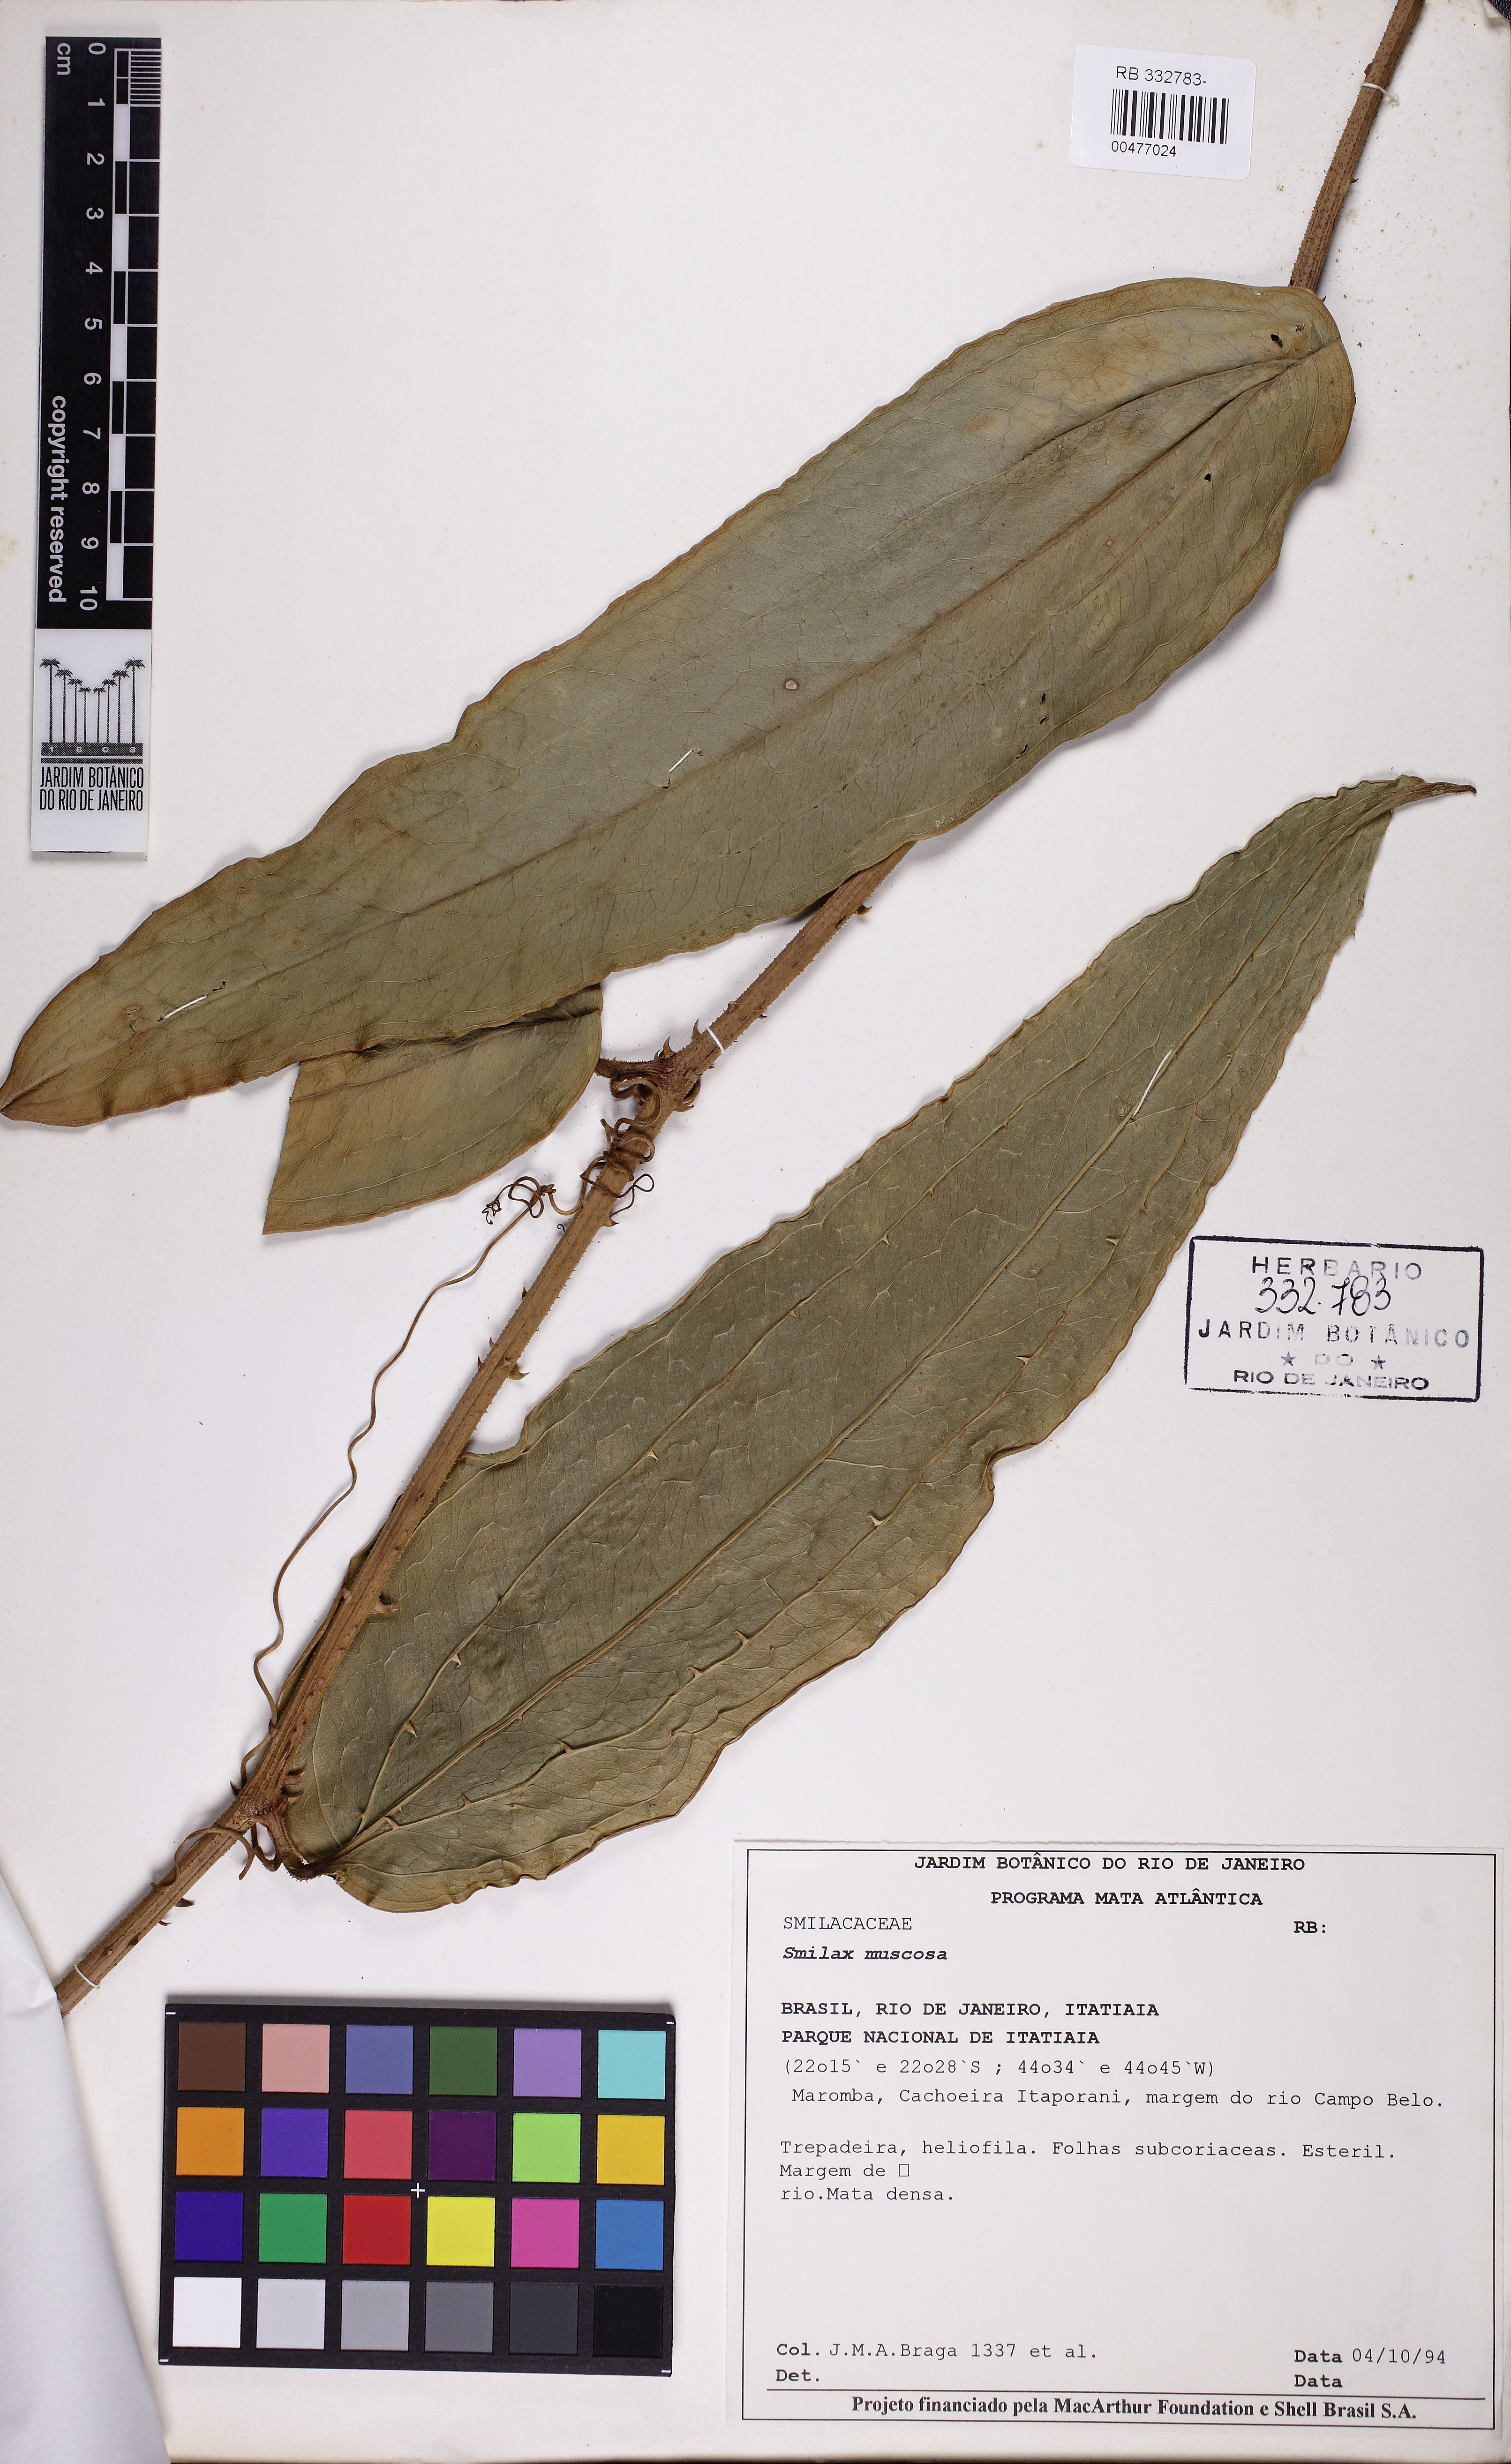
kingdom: Plantae
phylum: Tracheophyta
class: Liliopsida
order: Liliales
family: Smilacaceae
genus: Smilax
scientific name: Smilax muscosa
